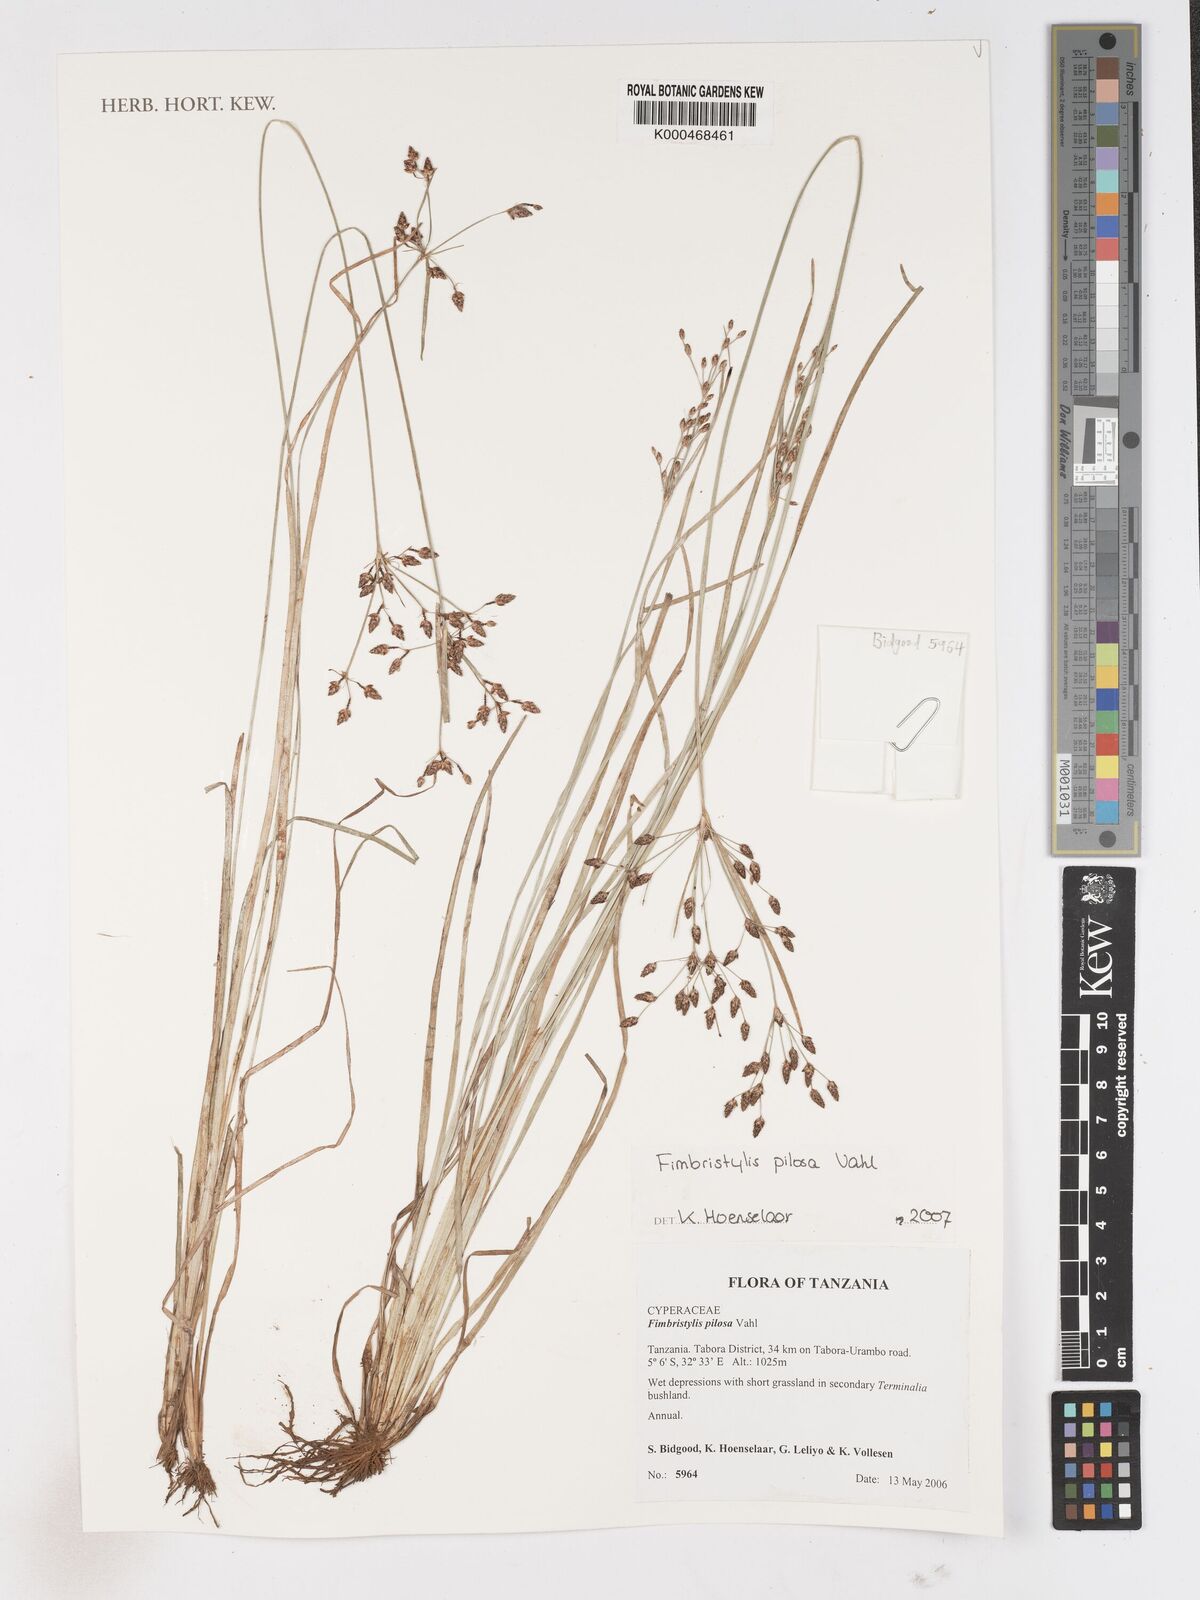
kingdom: Plantae
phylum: Tracheophyta
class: Liliopsida
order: Poales
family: Cyperaceae
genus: Fimbristylis
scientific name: Fimbristylis pilosa
